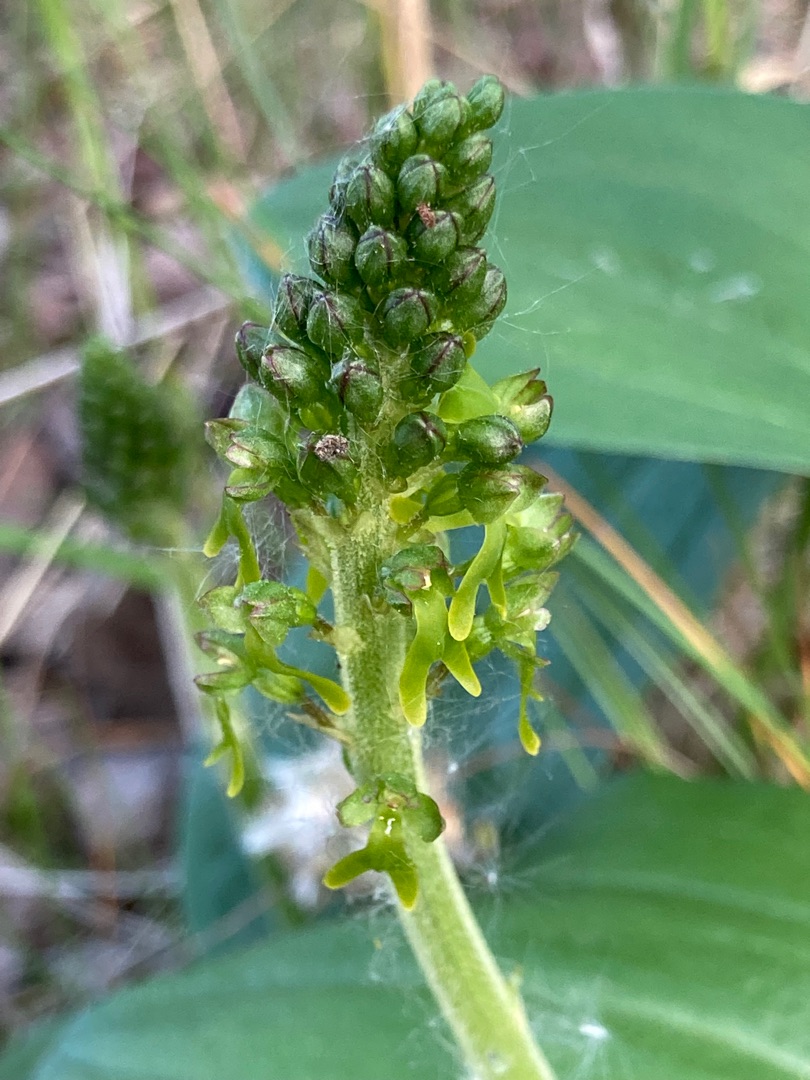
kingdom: Plantae
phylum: Tracheophyta
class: Liliopsida
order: Asparagales
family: Orchidaceae
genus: Neottia
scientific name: Neottia ovata
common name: Ægbladet fliglæbe
